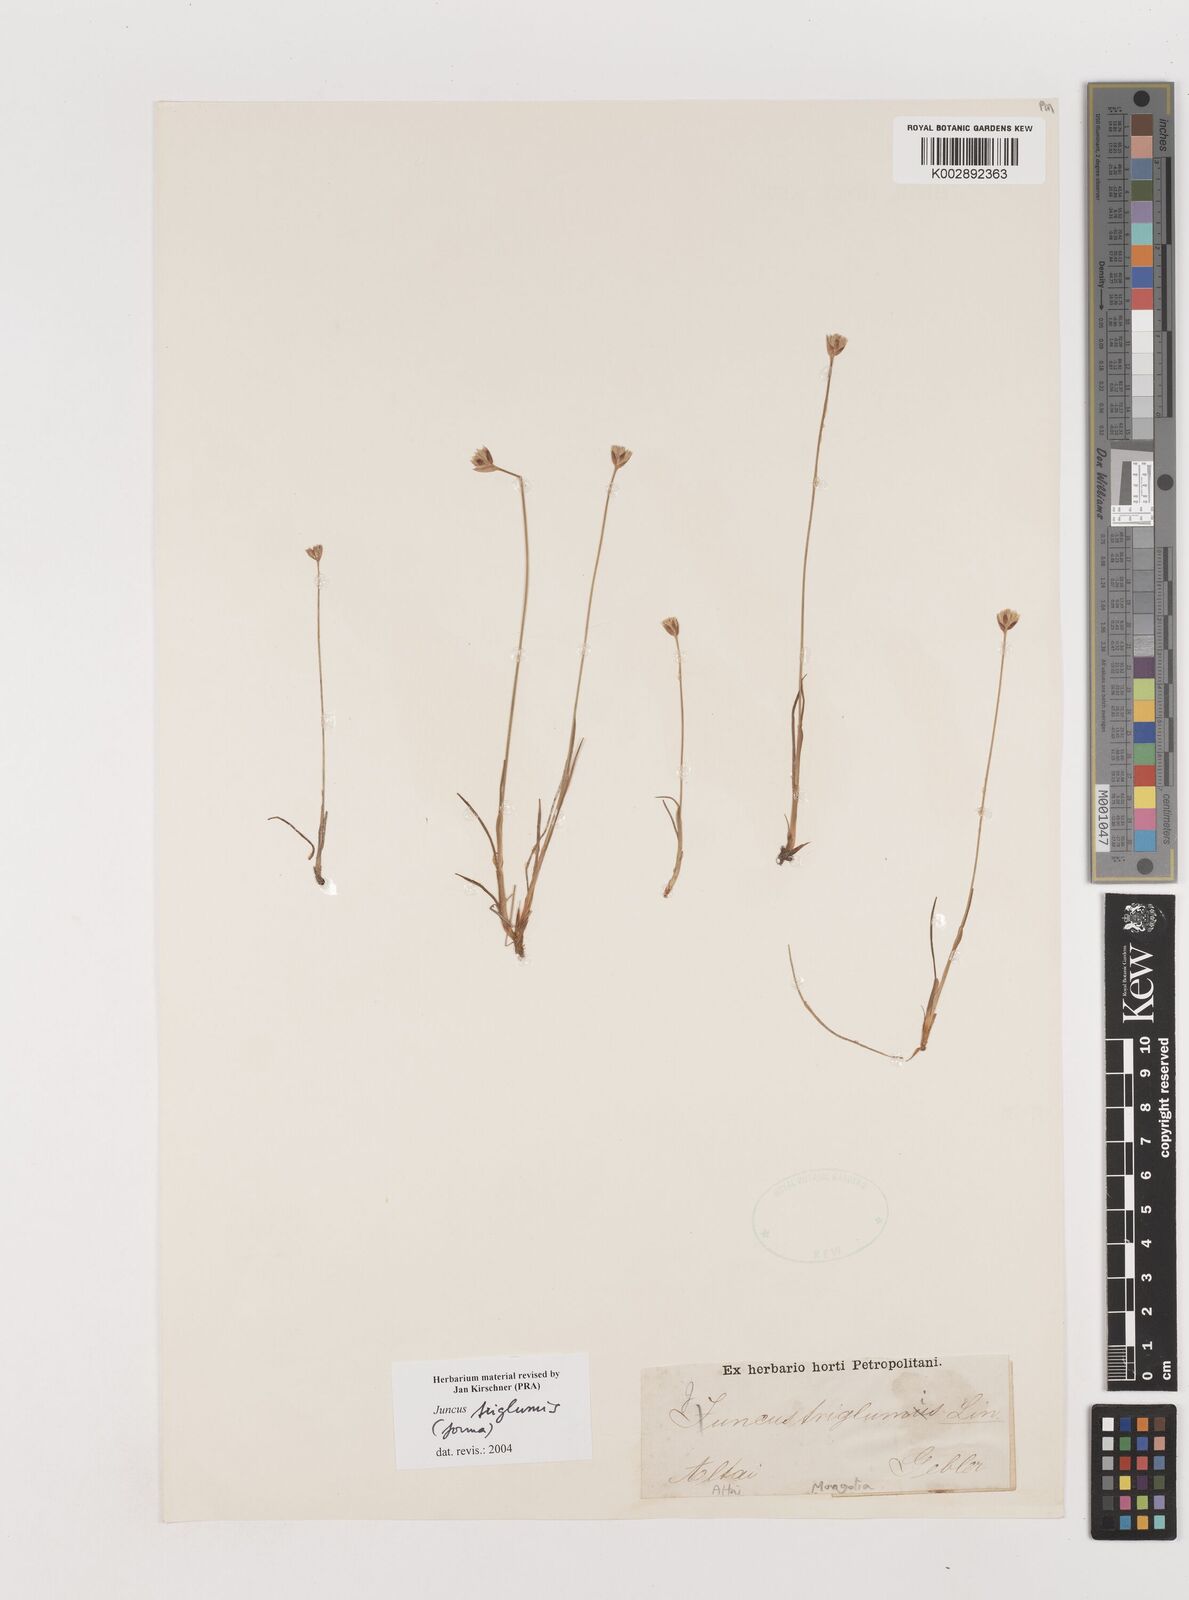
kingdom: Plantae
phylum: Tracheophyta
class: Liliopsida
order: Poales
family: Juncaceae
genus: Juncus
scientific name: Juncus triglumis
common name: Three-flowered rush
